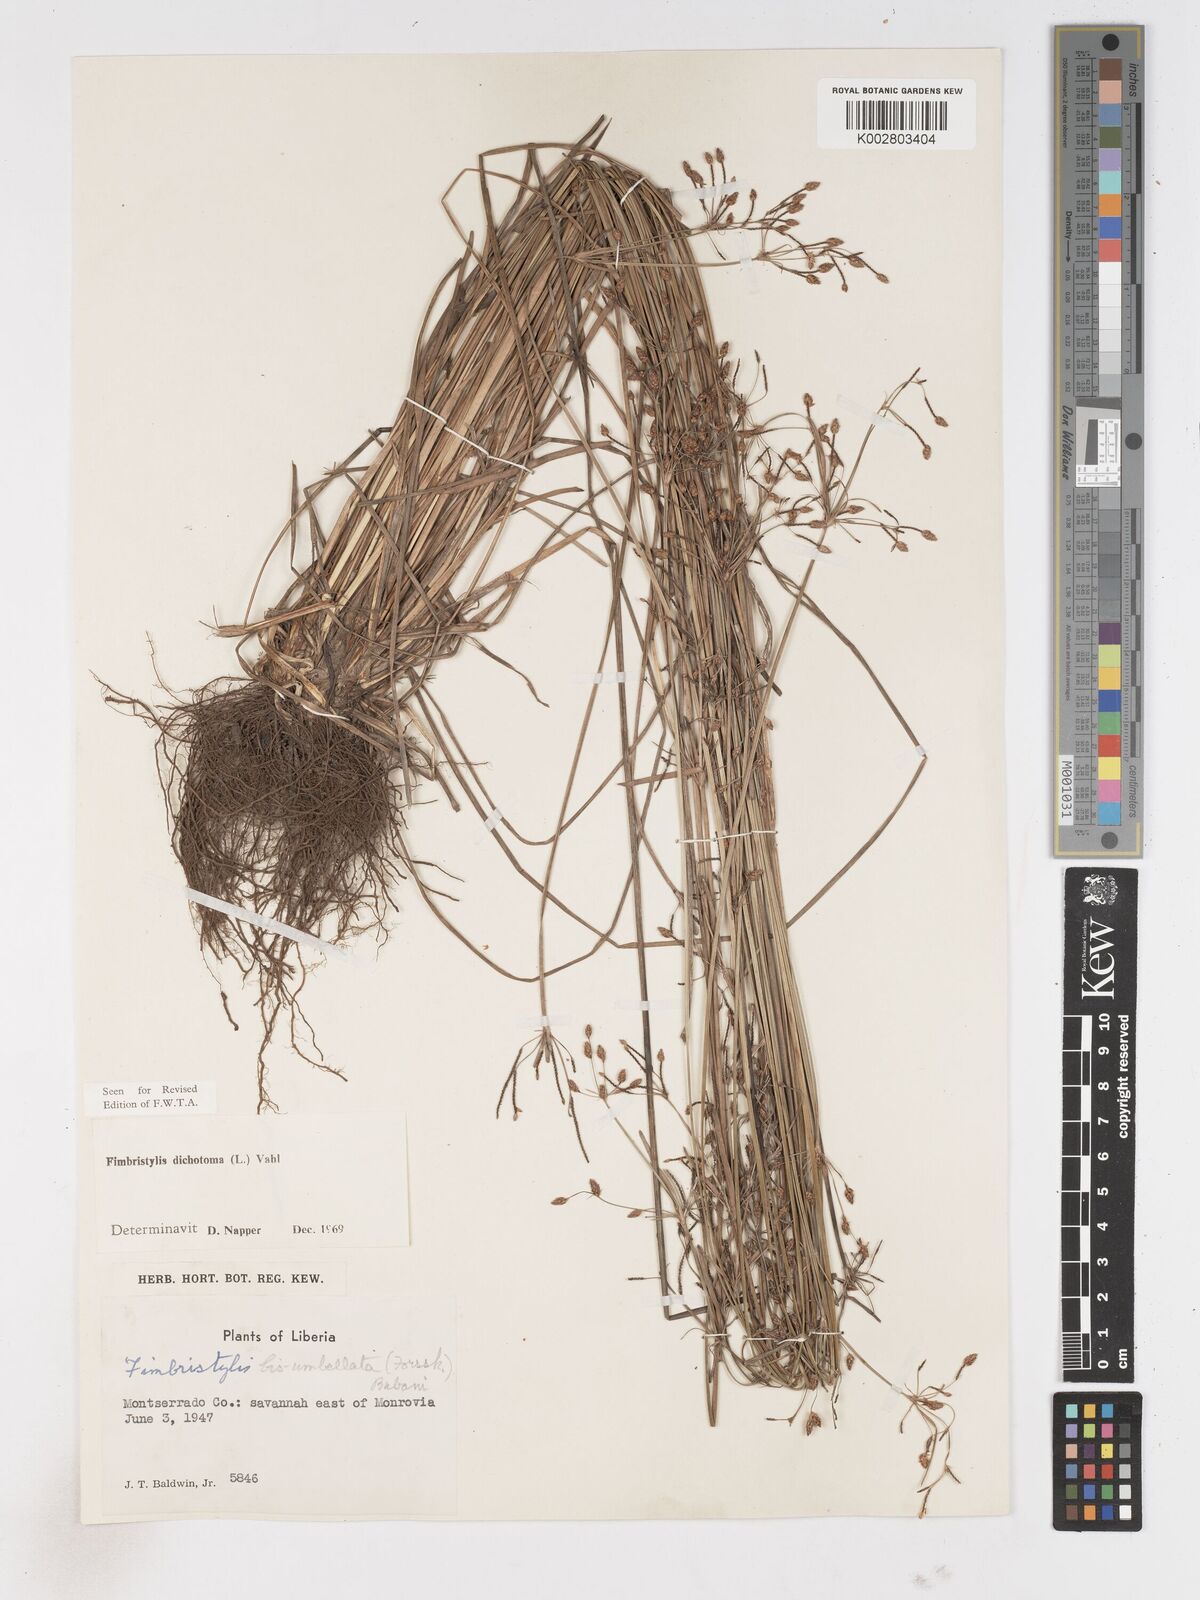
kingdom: Plantae
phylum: Tracheophyta
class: Liliopsida
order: Poales
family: Cyperaceae
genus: Fimbristylis
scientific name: Fimbristylis dichotoma
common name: Forked fimbry
